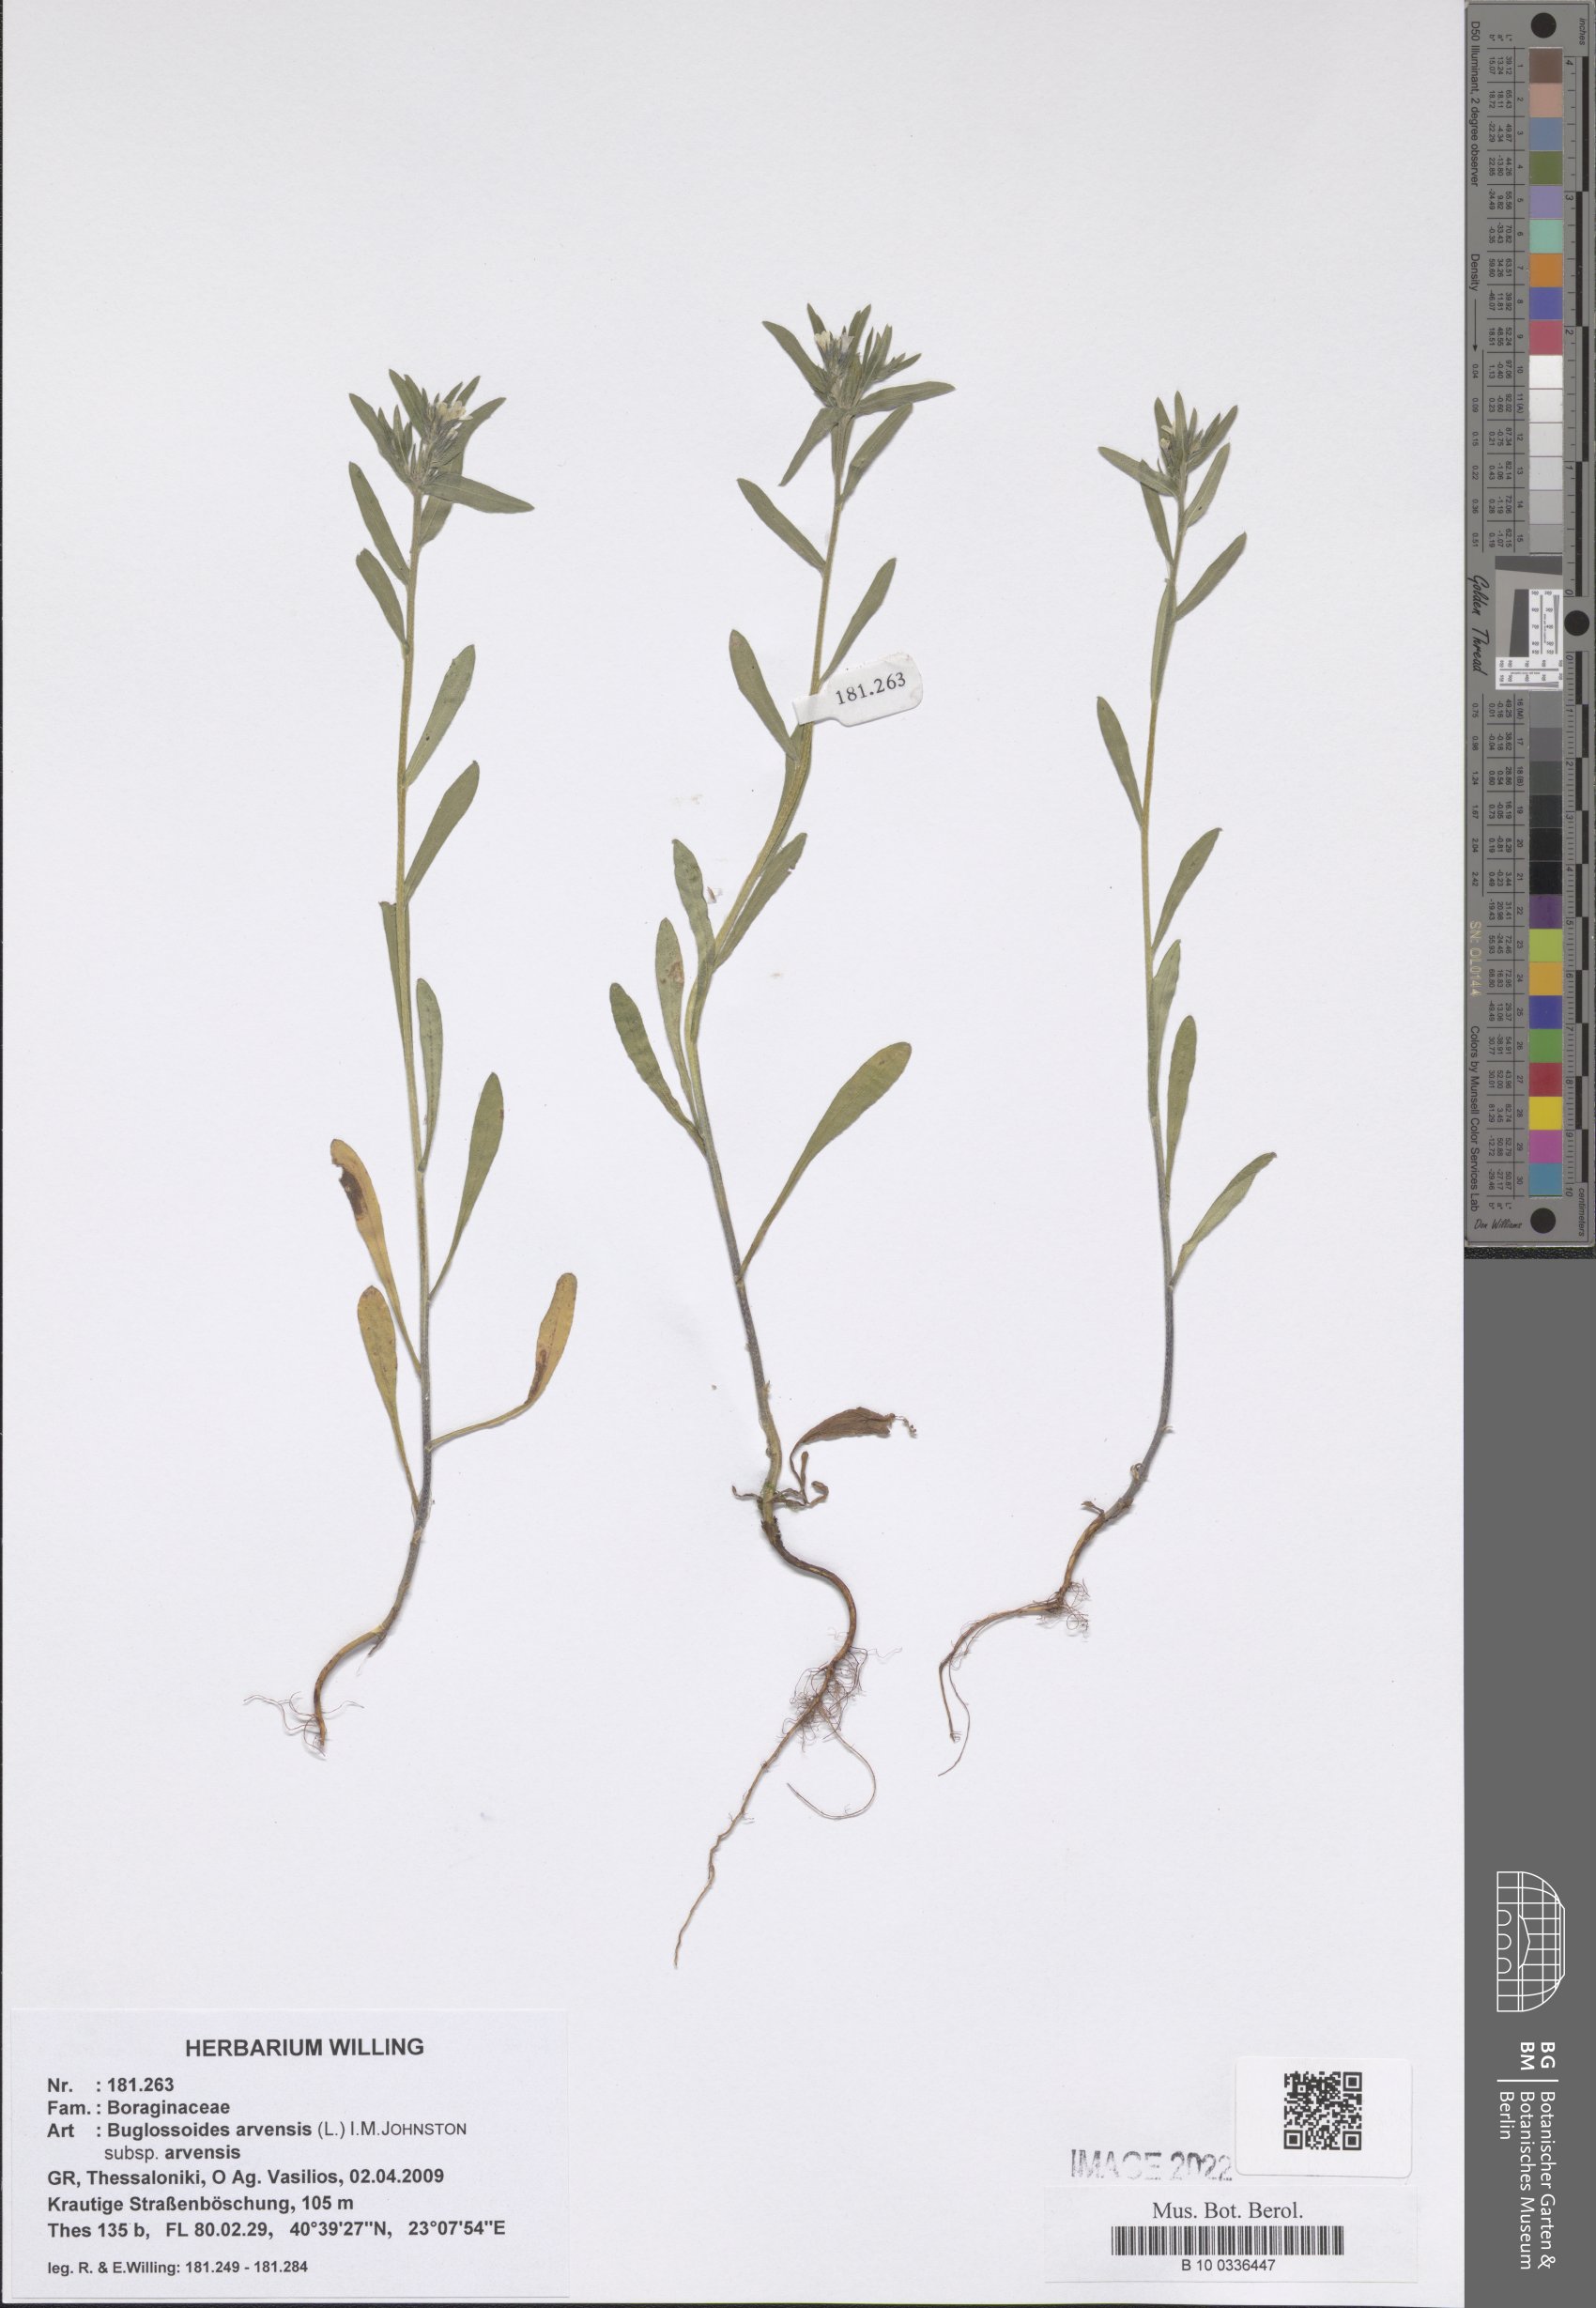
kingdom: Plantae
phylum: Tracheophyta
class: Magnoliopsida
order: Boraginales
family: Boraginaceae
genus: Buglossoides
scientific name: Buglossoides arvensis
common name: Corn gromwell
